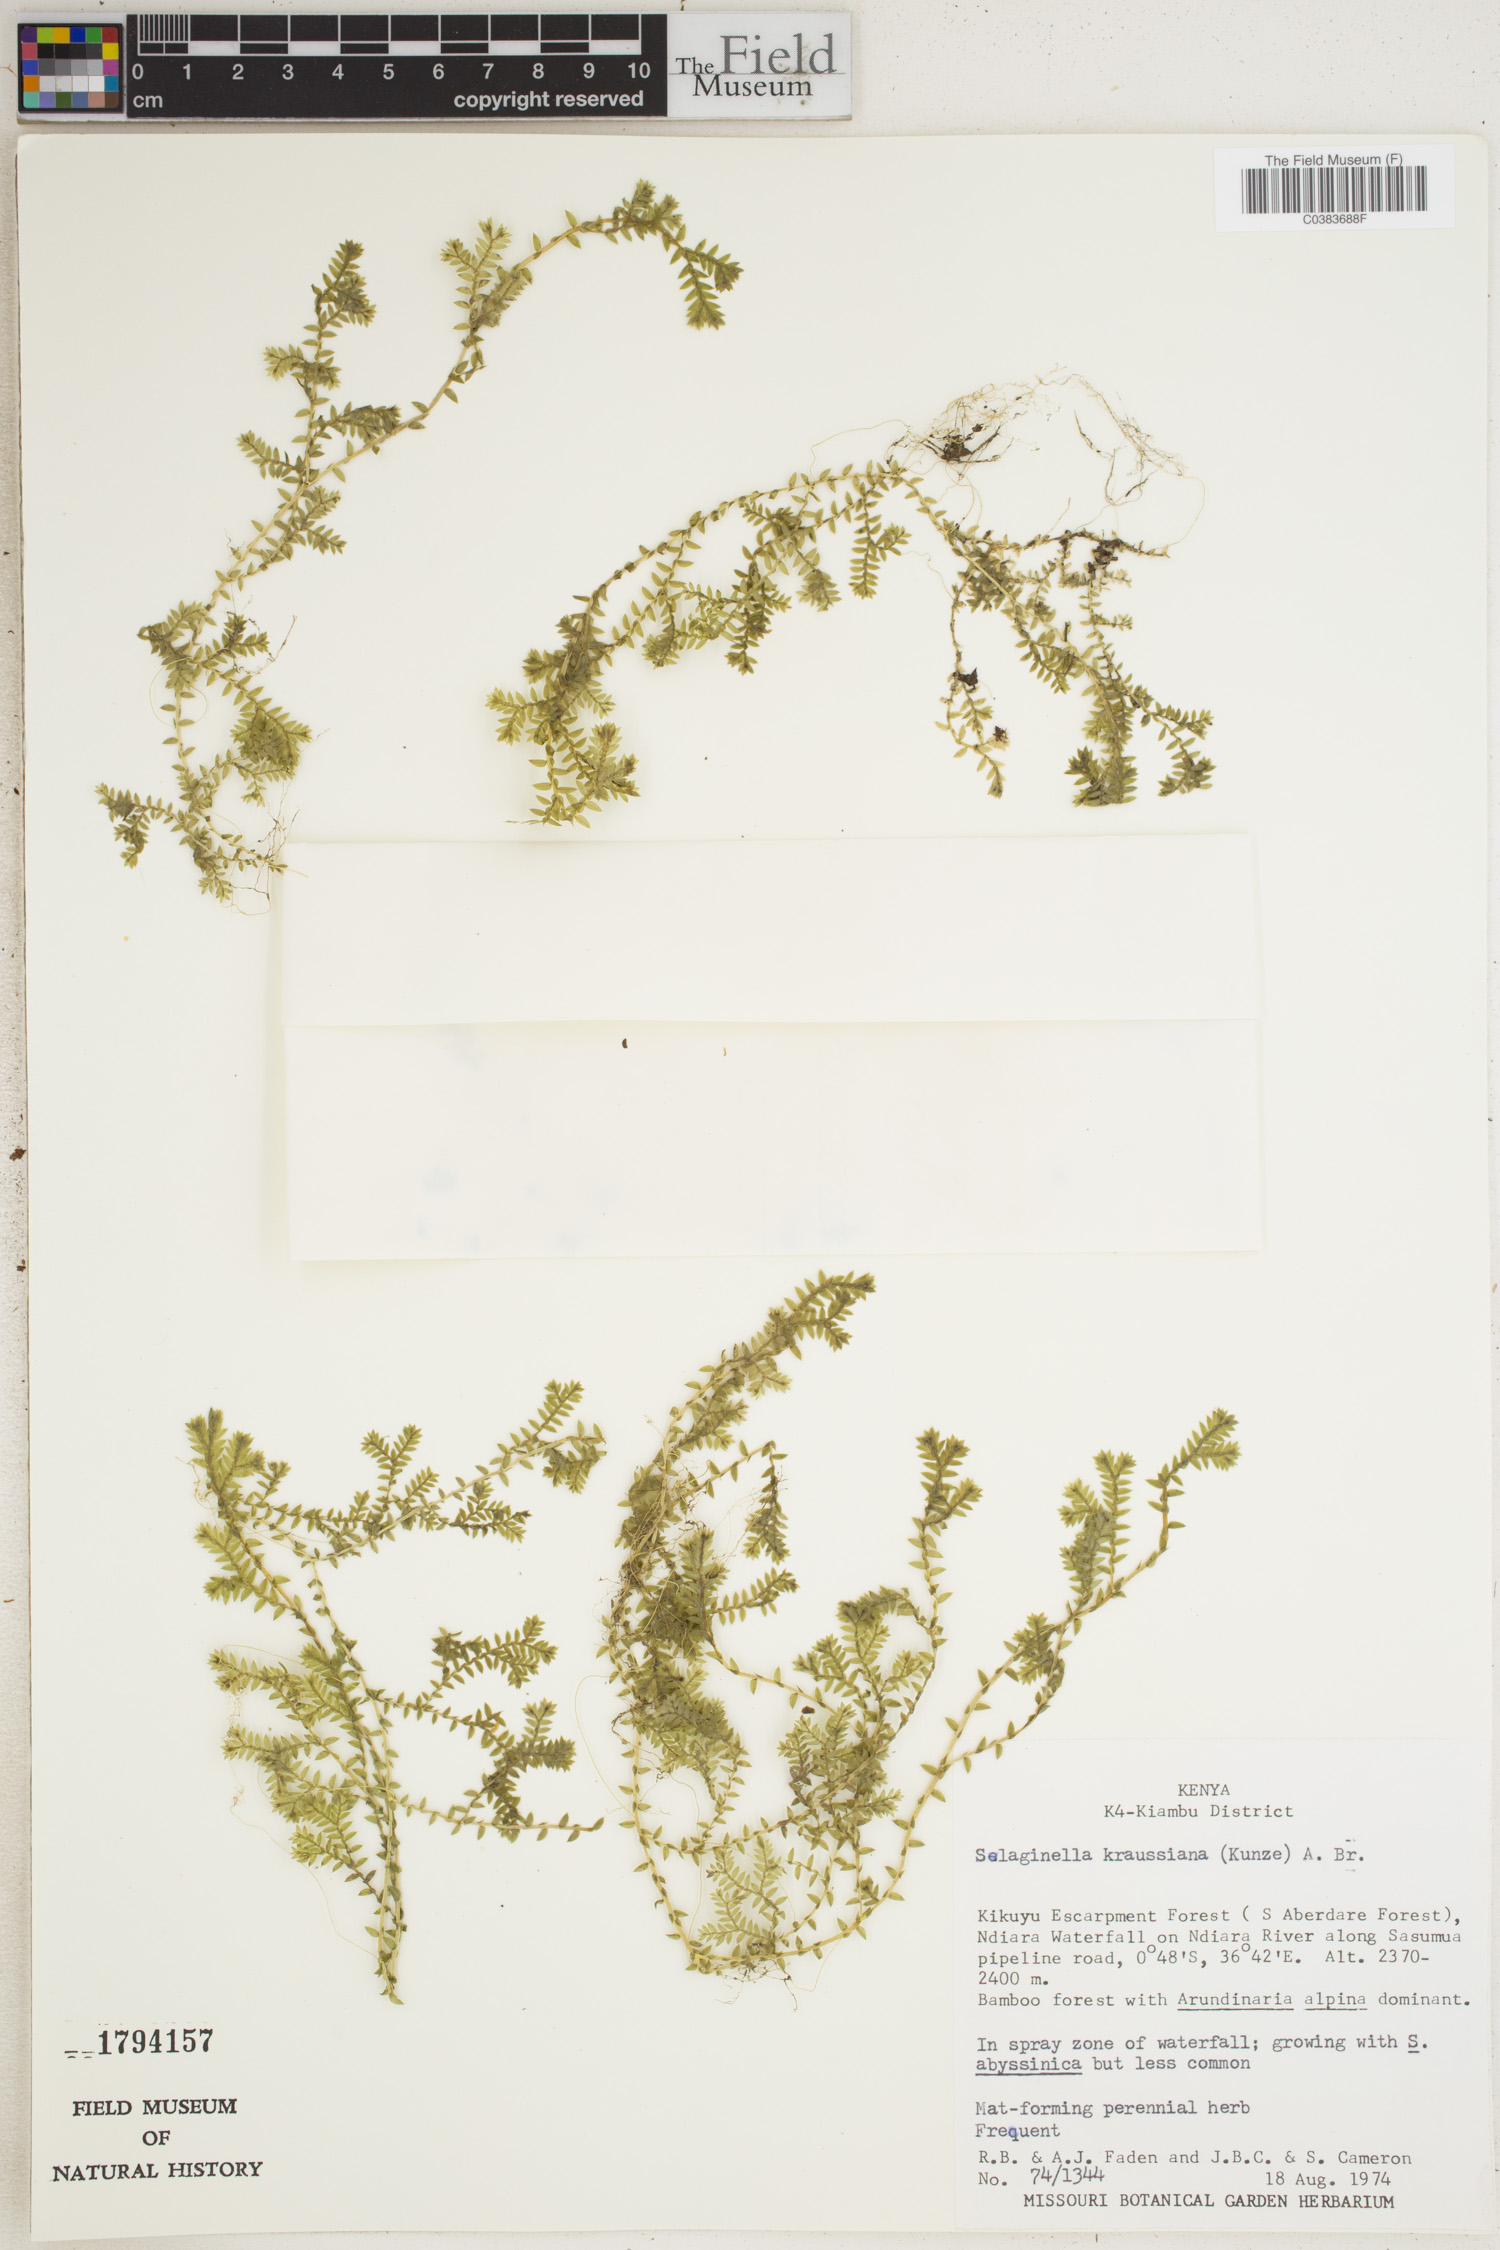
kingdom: Plantae
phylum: Tracheophyta
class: Lycopodiopsida
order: Selaginellales
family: Selaginellaceae
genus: Selaginella
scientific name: Selaginella kraussiana
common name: Krauss' spikemoss
